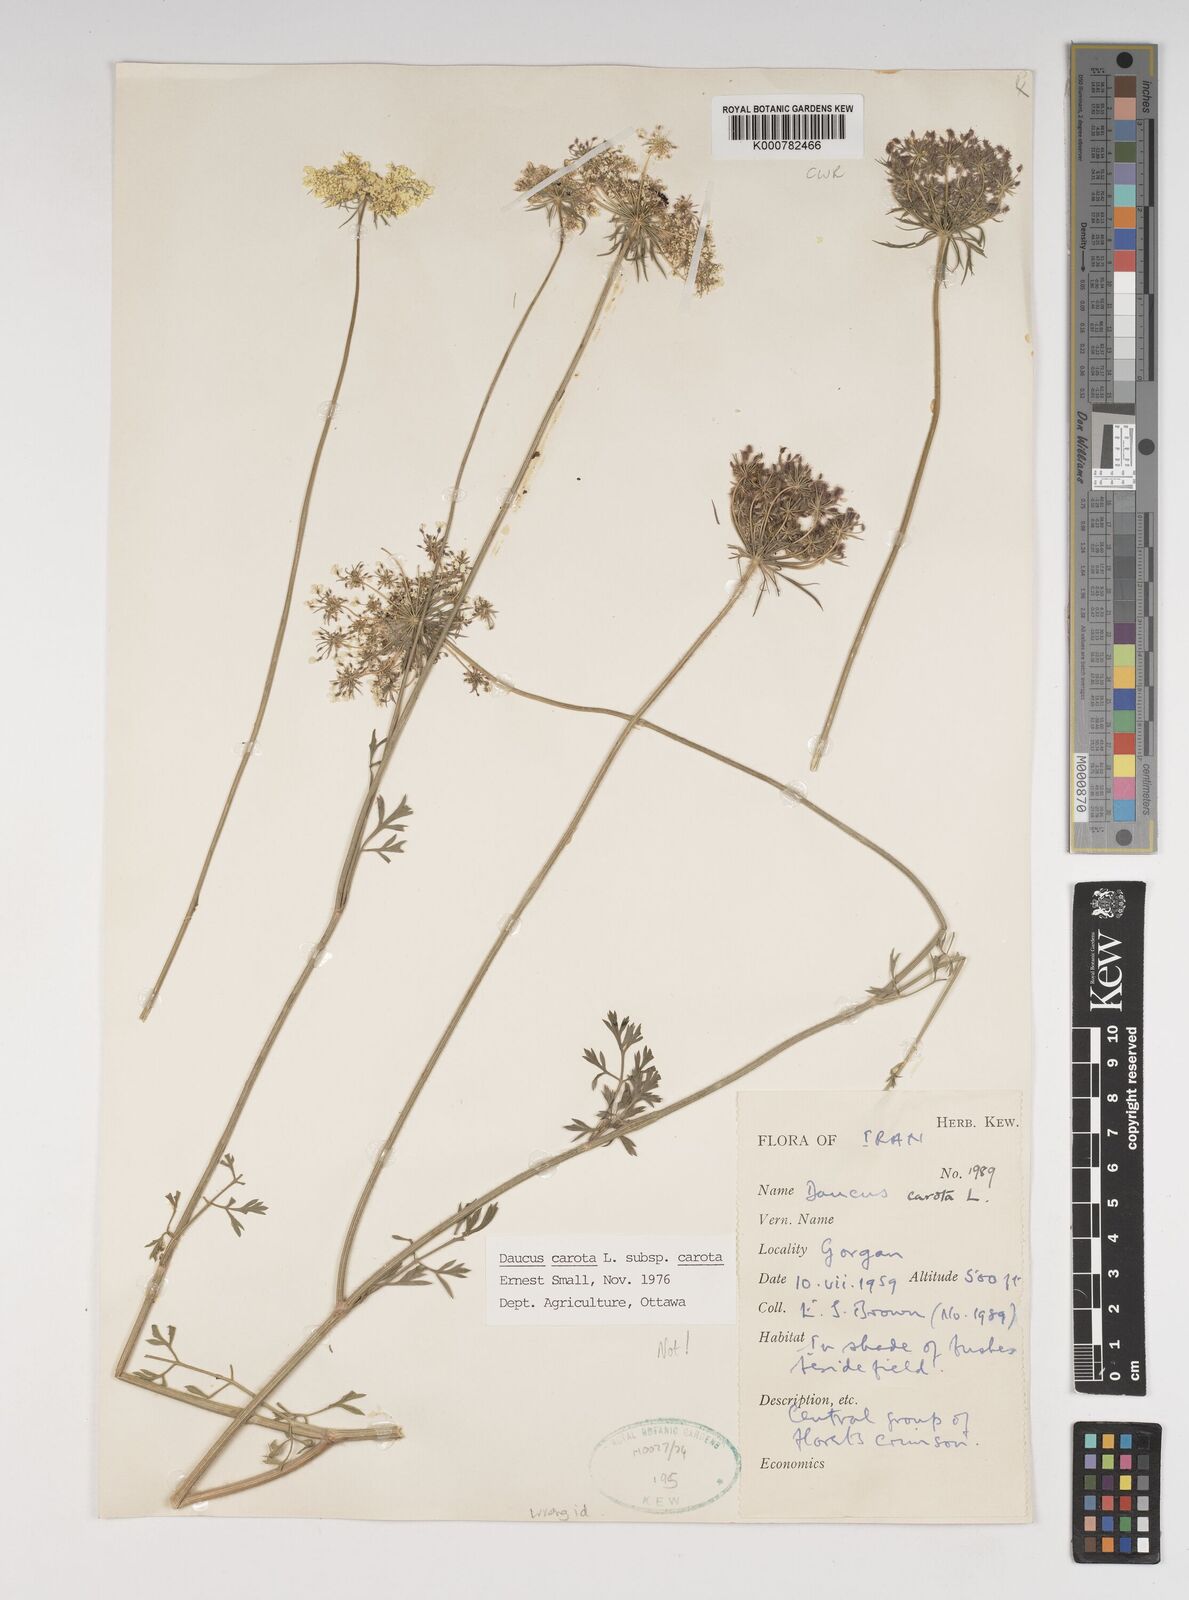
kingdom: Plantae
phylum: Tracheophyta
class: Magnoliopsida
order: Apiales
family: Apiaceae
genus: Daucus
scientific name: Daucus carota
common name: Wild carrot
